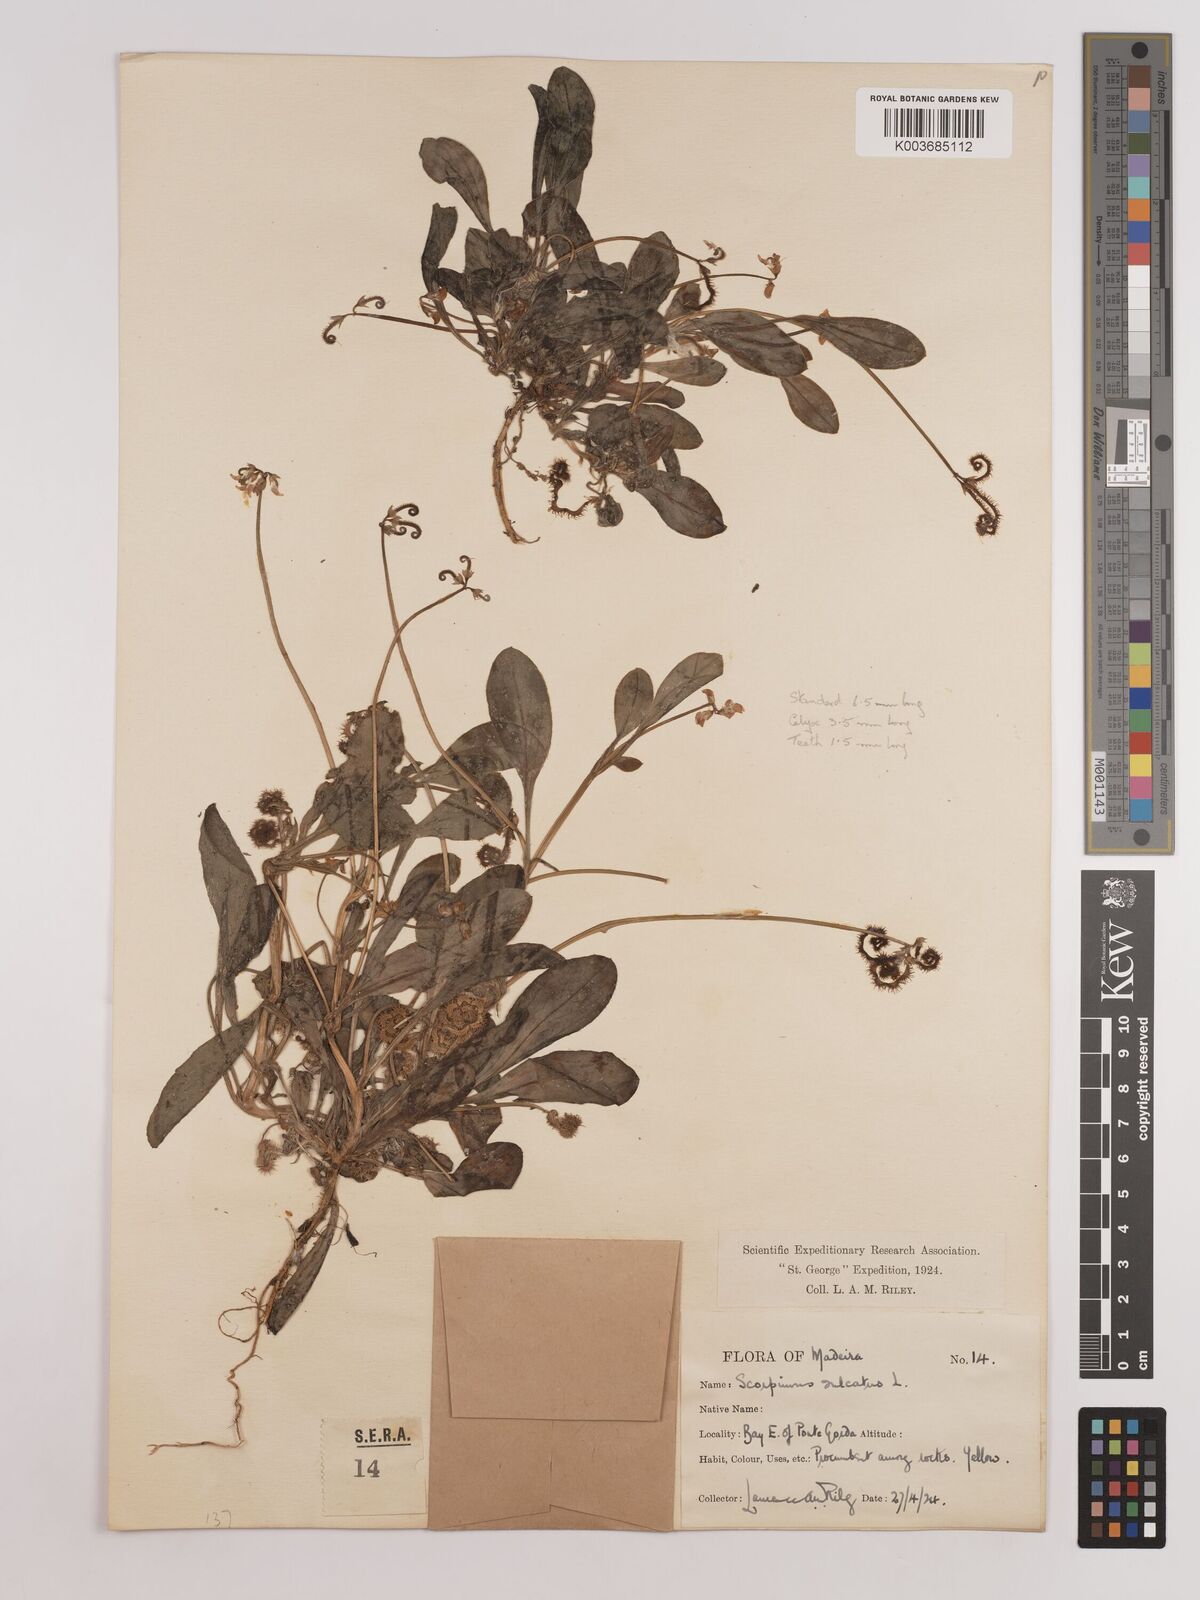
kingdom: Plantae
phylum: Tracheophyta
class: Magnoliopsida
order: Fabales
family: Fabaceae
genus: Scorpiurus
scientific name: Scorpiurus muricatus
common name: Caterpillar-plant
